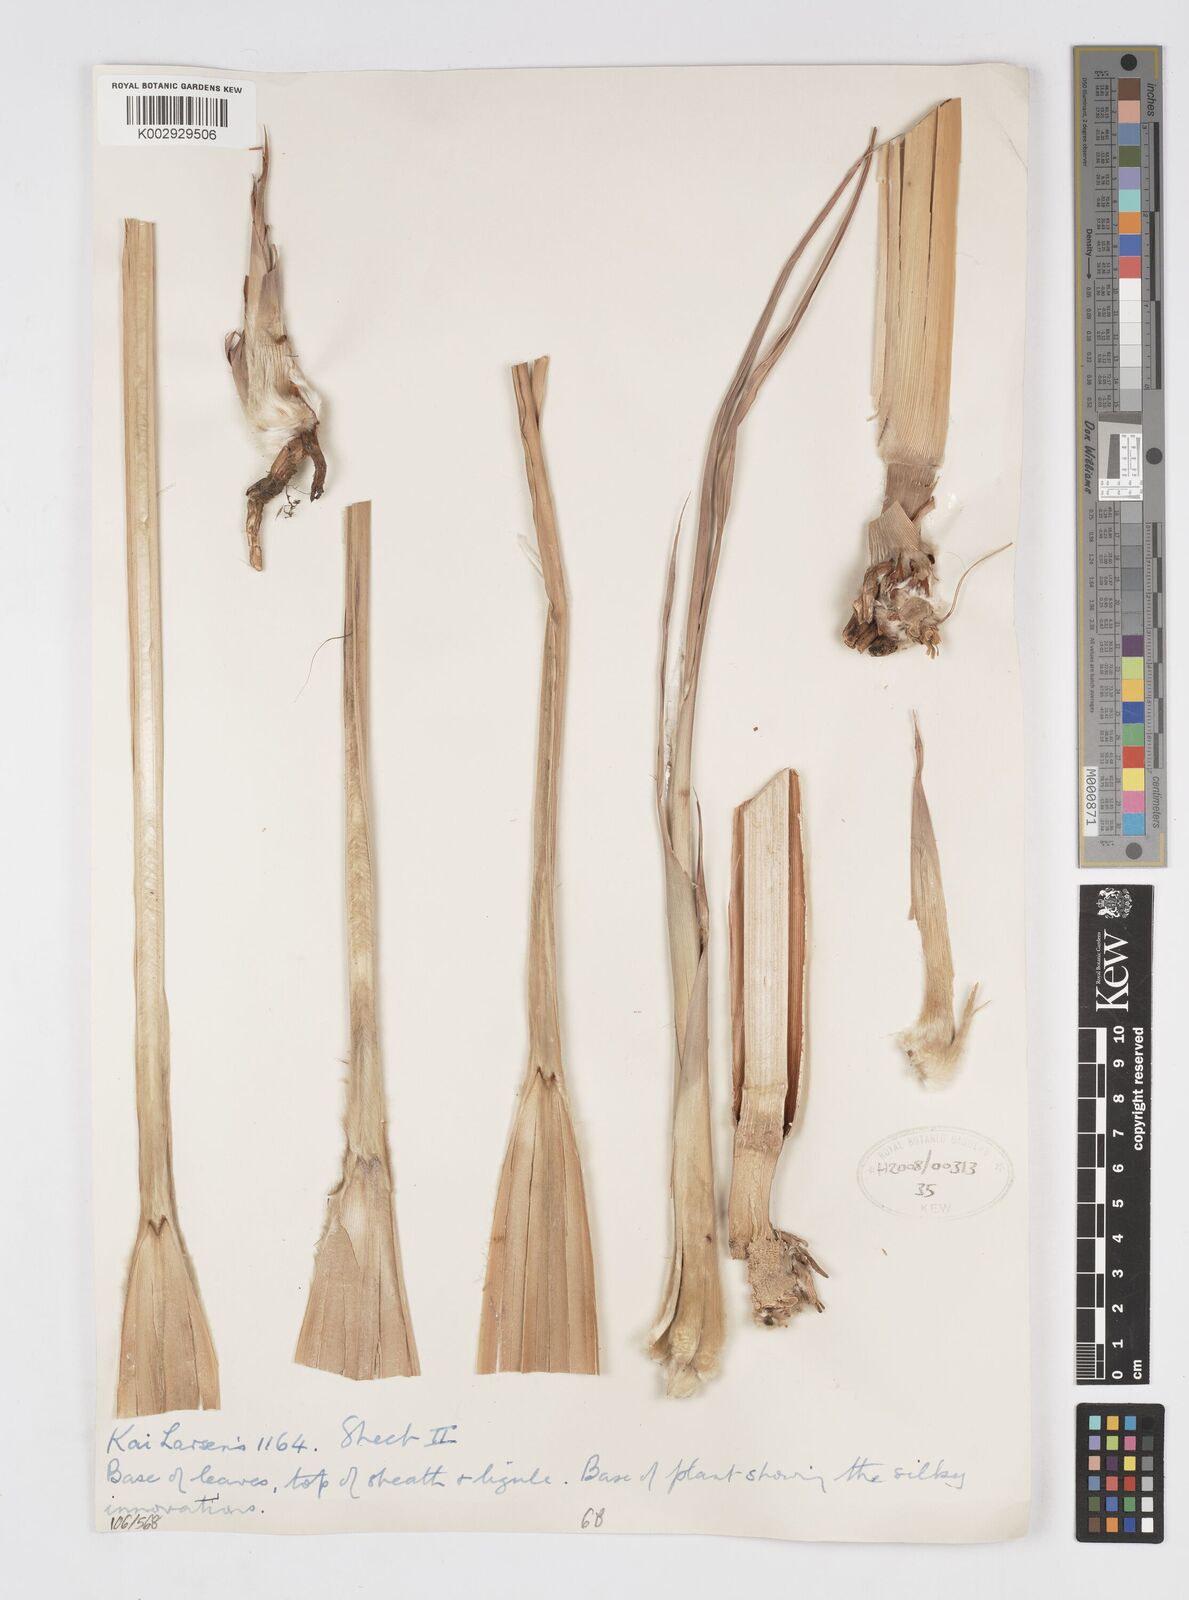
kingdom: Plantae
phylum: Tracheophyta
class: Liliopsida
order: Poales
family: Poaceae
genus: Saccharum
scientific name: Saccharum
